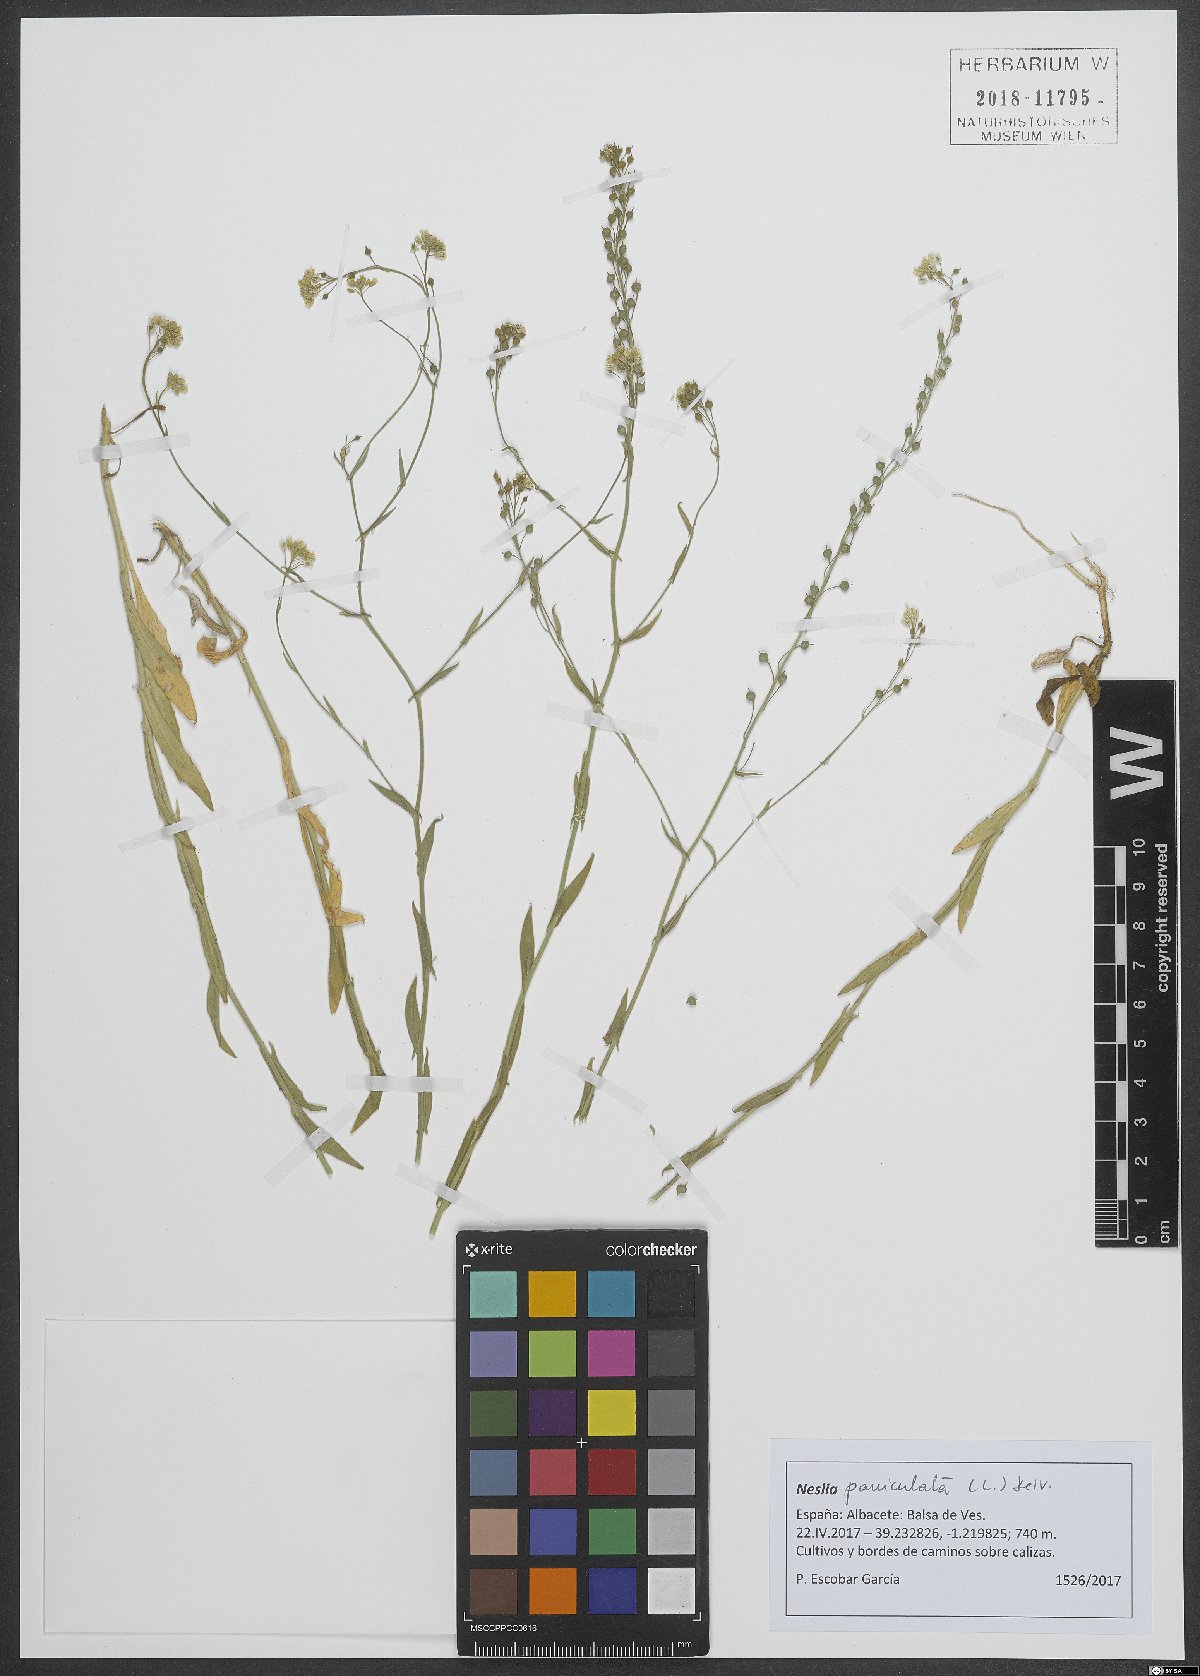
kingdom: Plantae
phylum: Tracheophyta
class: Magnoliopsida
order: Brassicales
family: Brassicaceae
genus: Neslia
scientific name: Neslia paniculata
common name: Ball mustard
